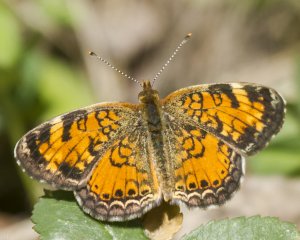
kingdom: Animalia
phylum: Arthropoda
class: Insecta
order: Lepidoptera
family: Nymphalidae
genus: Phyciodes
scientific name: Phyciodes tharos
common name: Northern Crescent
